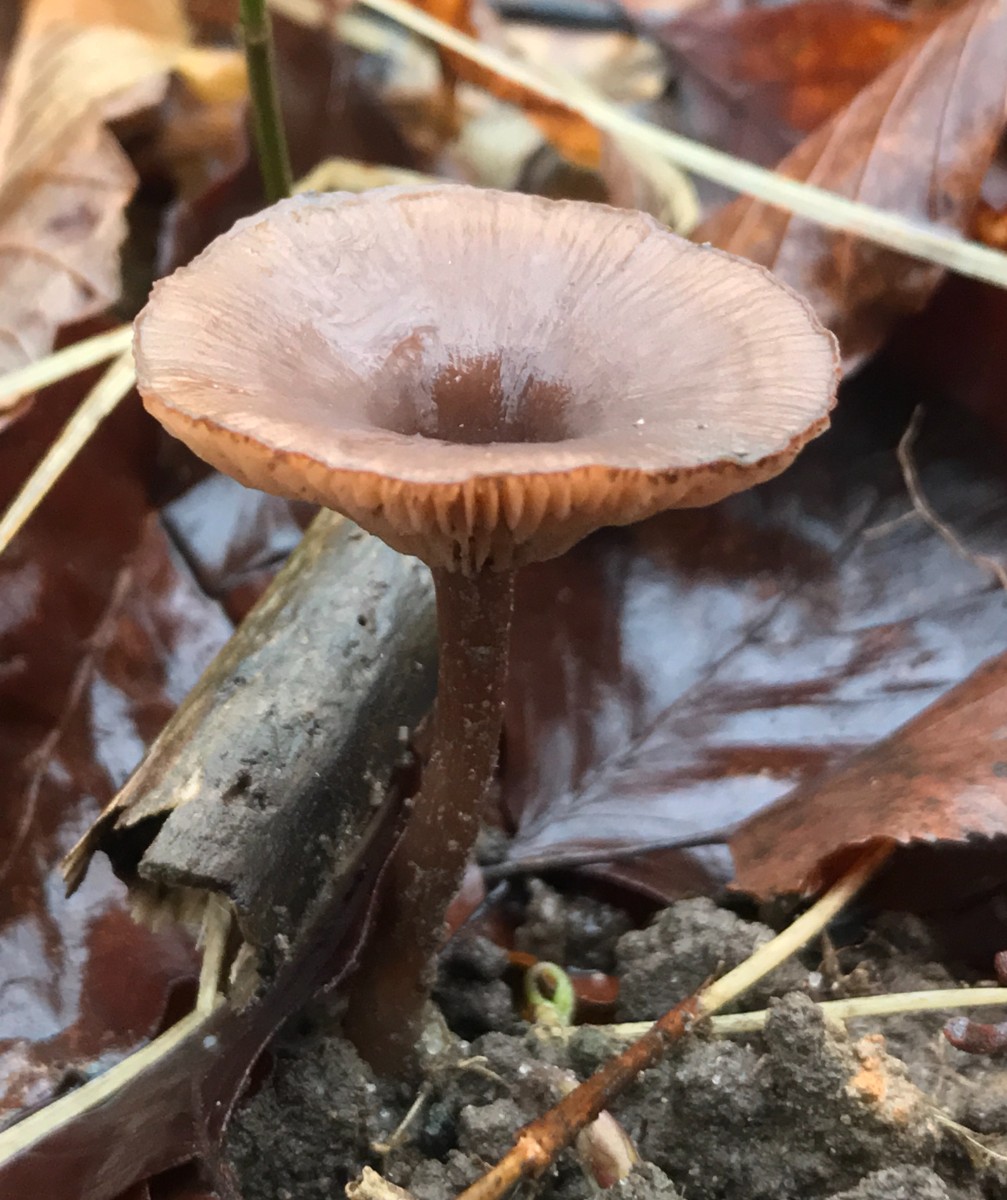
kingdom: Fungi
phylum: Basidiomycota
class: Agaricomycetes
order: Agaricales
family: Pseudoclitocybaceae
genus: Pseudoclitocybe
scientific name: Pseudoclitocybe cyathiformis
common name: almindelig bægertragthat
